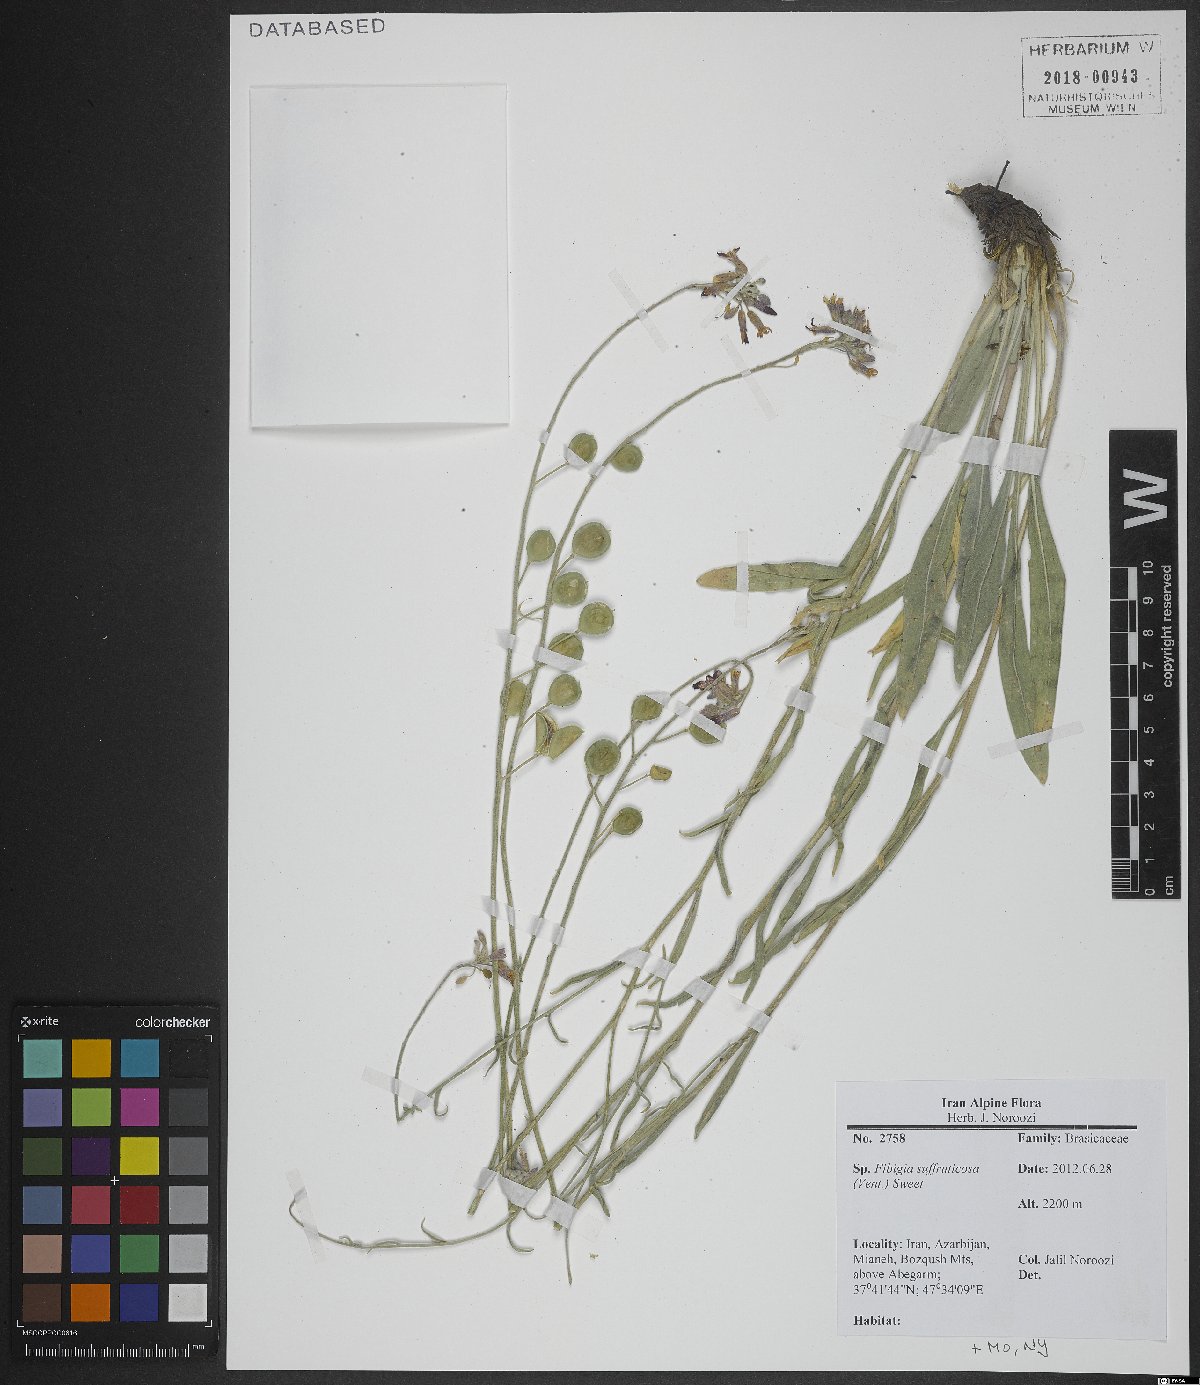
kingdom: Plantae
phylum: Tracheophyta
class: Magnoliopsida
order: Brassicales
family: Brassicaceae
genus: Brachypus
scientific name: Brachypus suffruticosus
